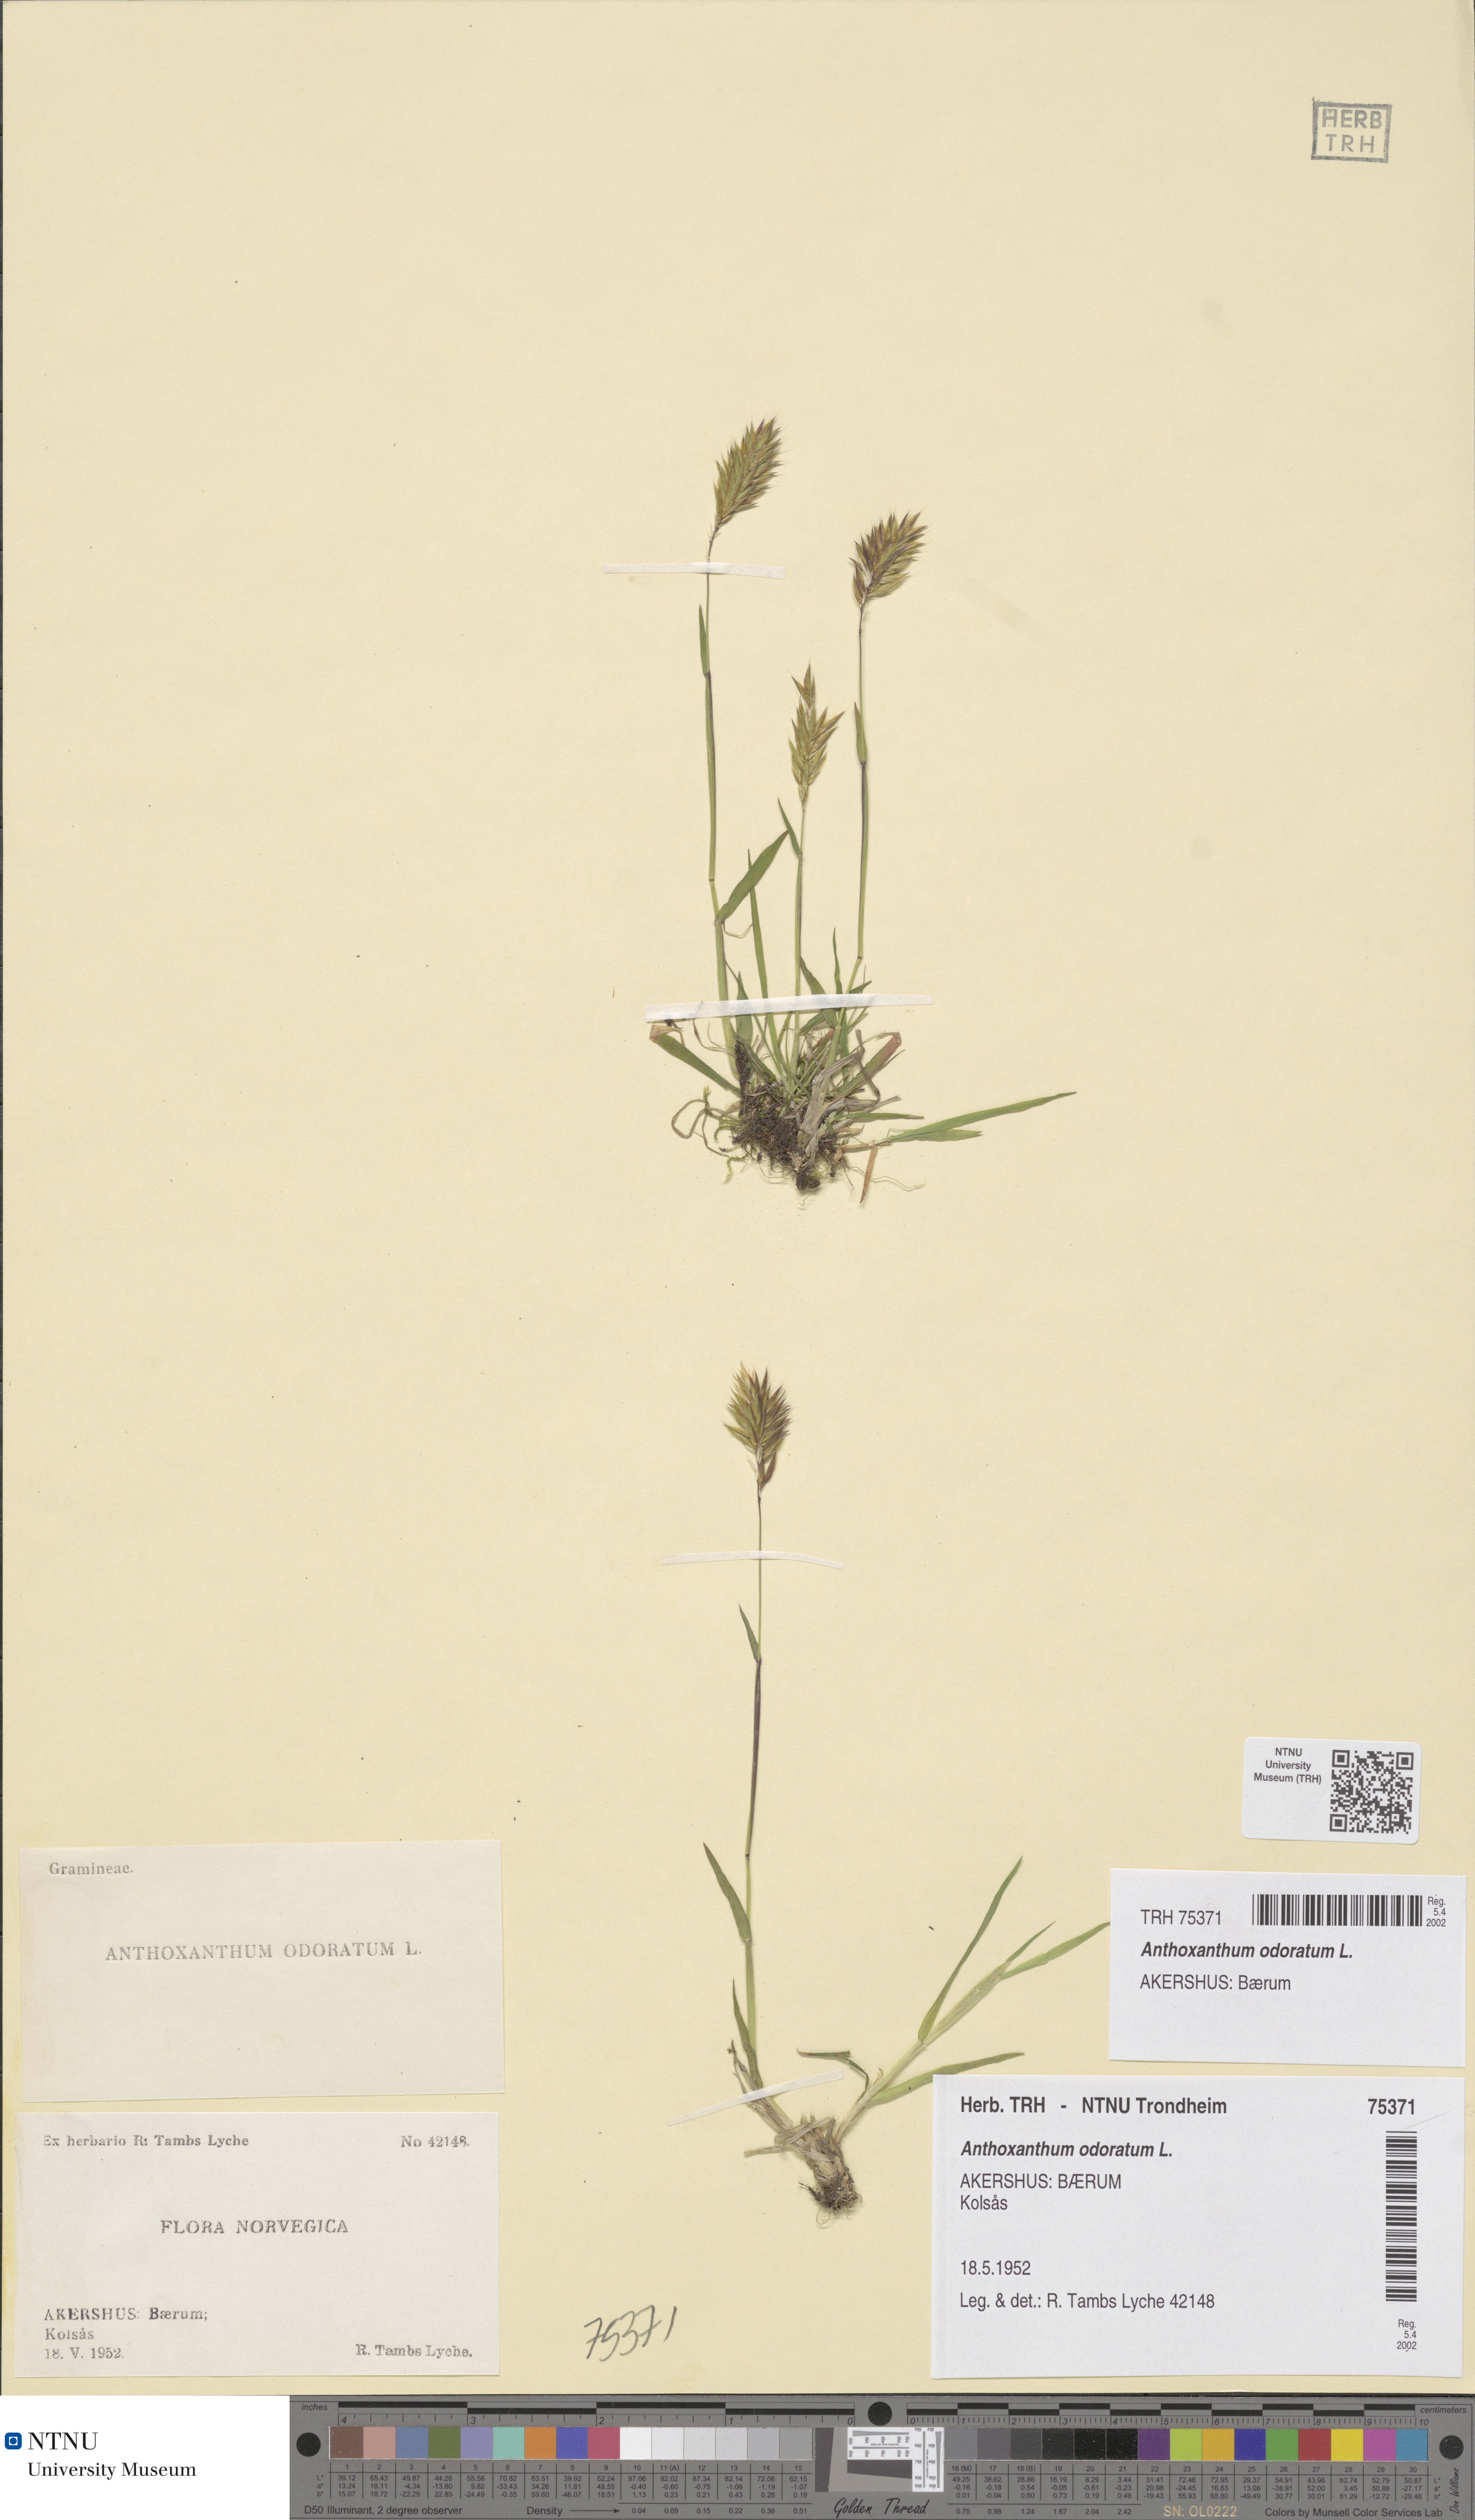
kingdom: Plantae
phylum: Tracheophyta
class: Liliopsida
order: Poales
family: Poaceae
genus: Anthoxanthum
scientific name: Anthoxanthum odoratum
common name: Sweet vernalgrass
